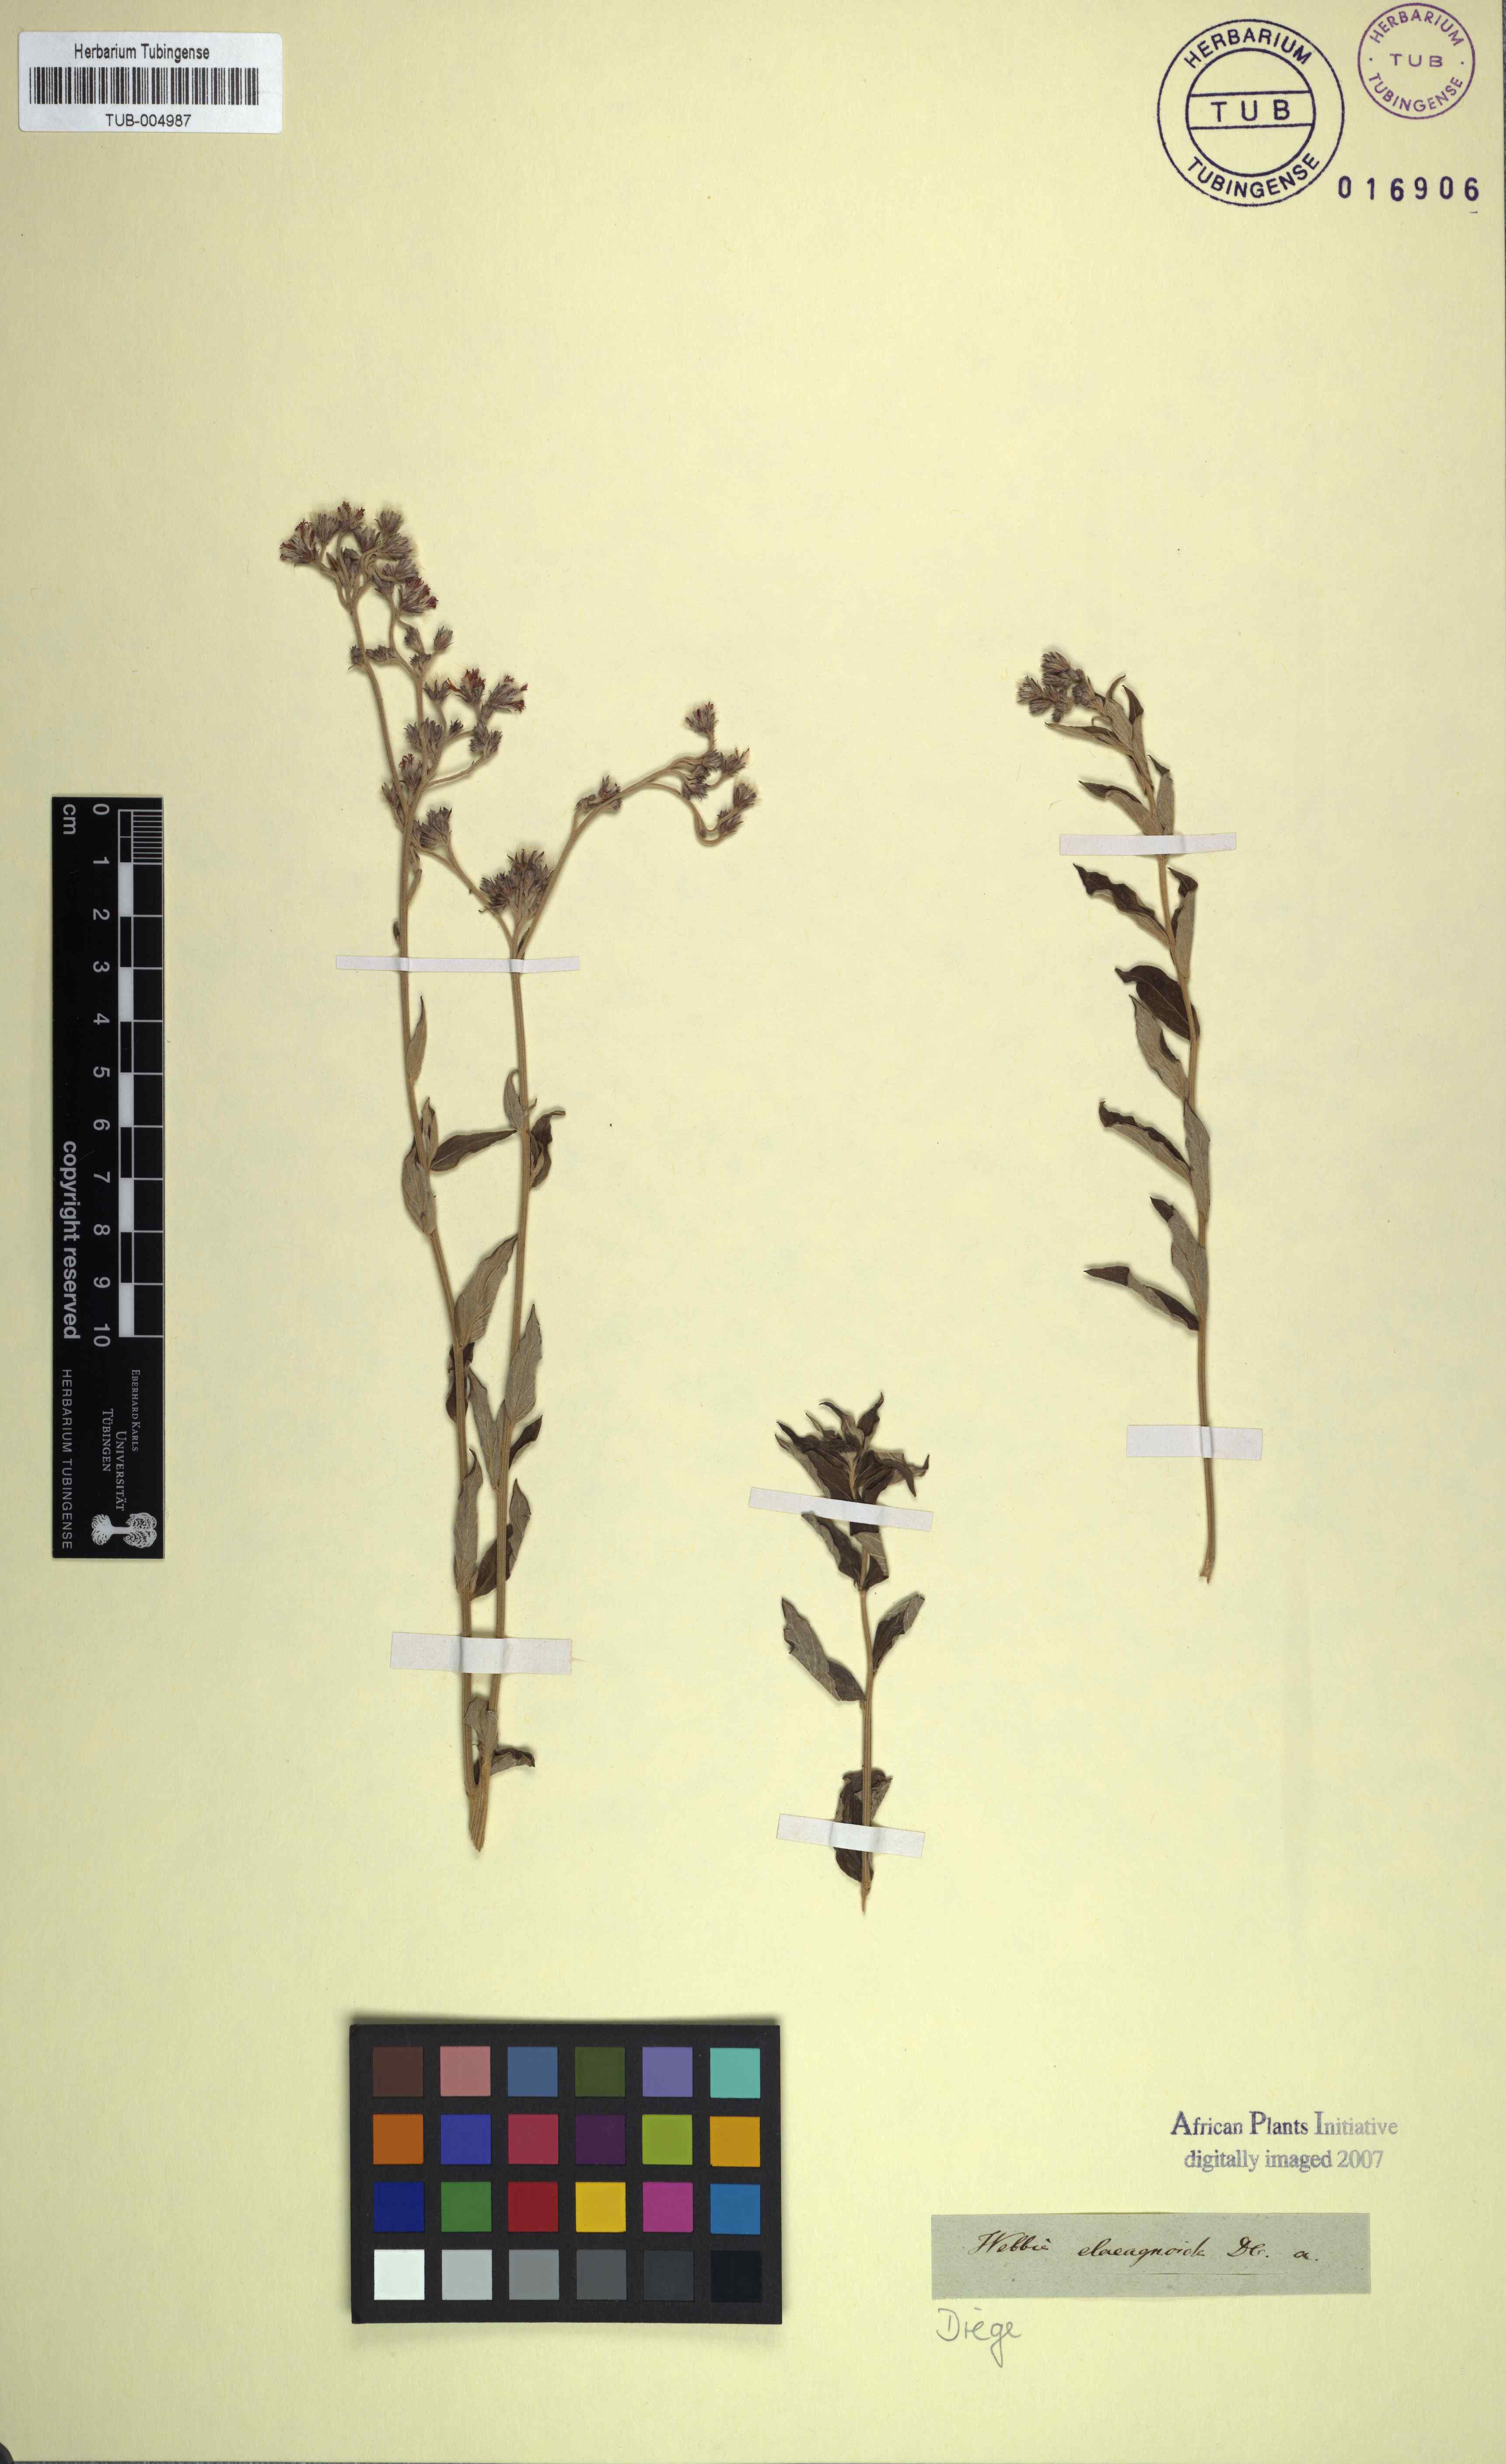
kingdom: Plantae
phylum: Tracheophyta
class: Magnoliopsida
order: Asterales
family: Asteraceae
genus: Hilliardiella
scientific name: Hilliardiella oligocephala
